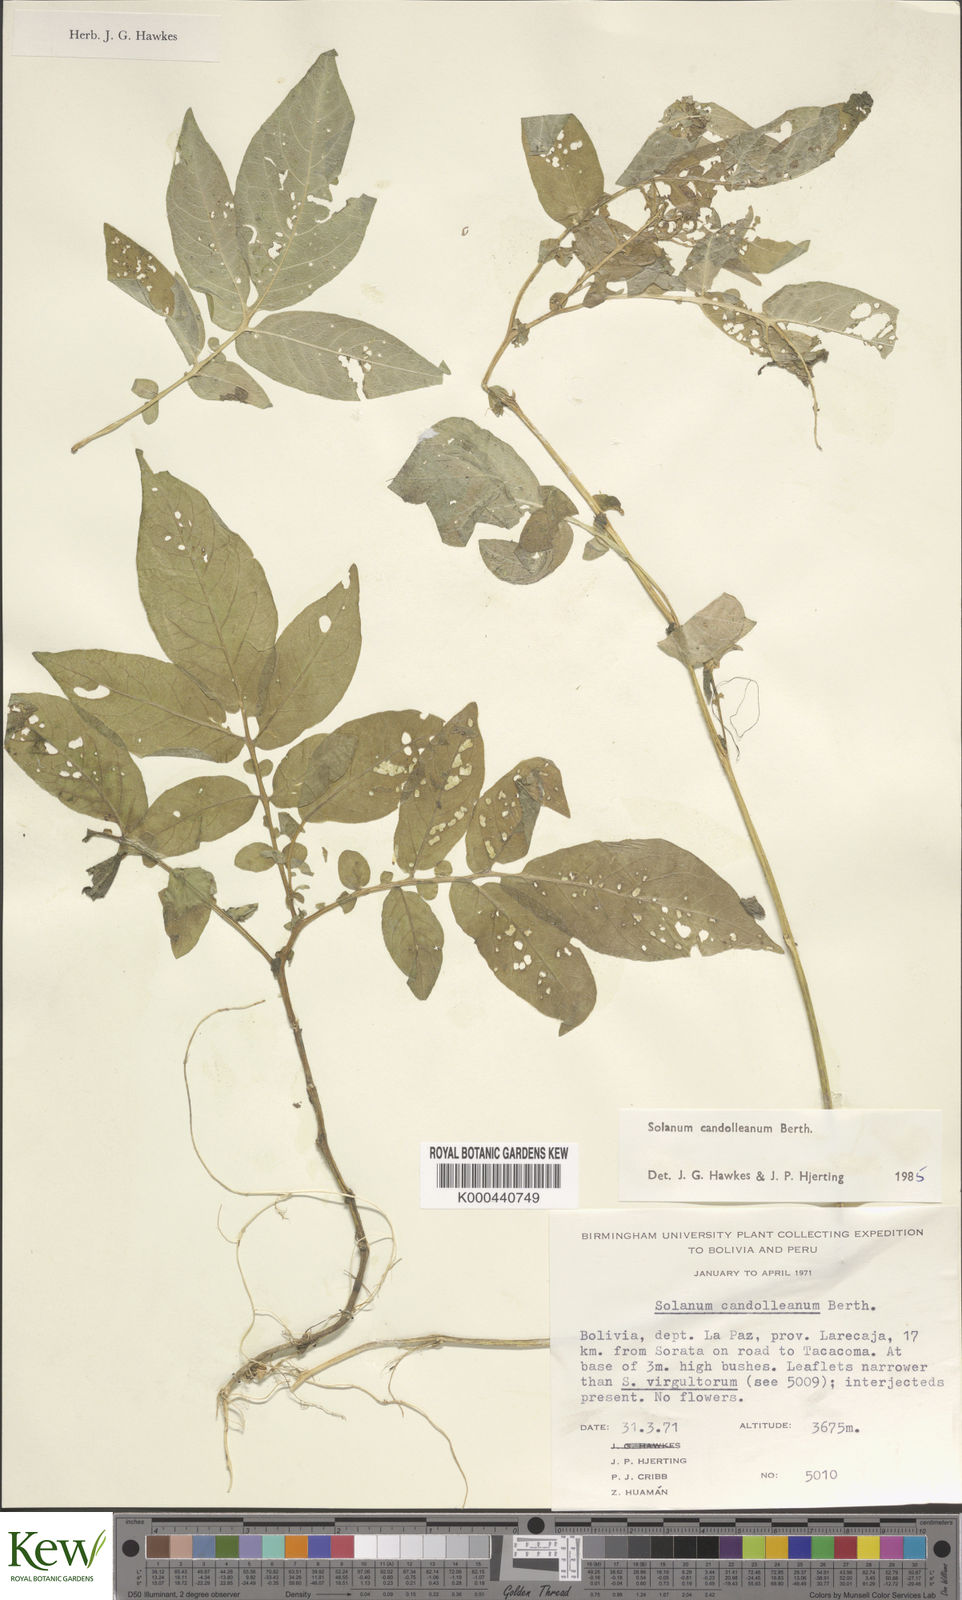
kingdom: Plantae
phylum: Tracheophyta
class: Magnoliopsida
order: Solanales
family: Solanaceae
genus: Solanum
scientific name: Solanum brevicaule
